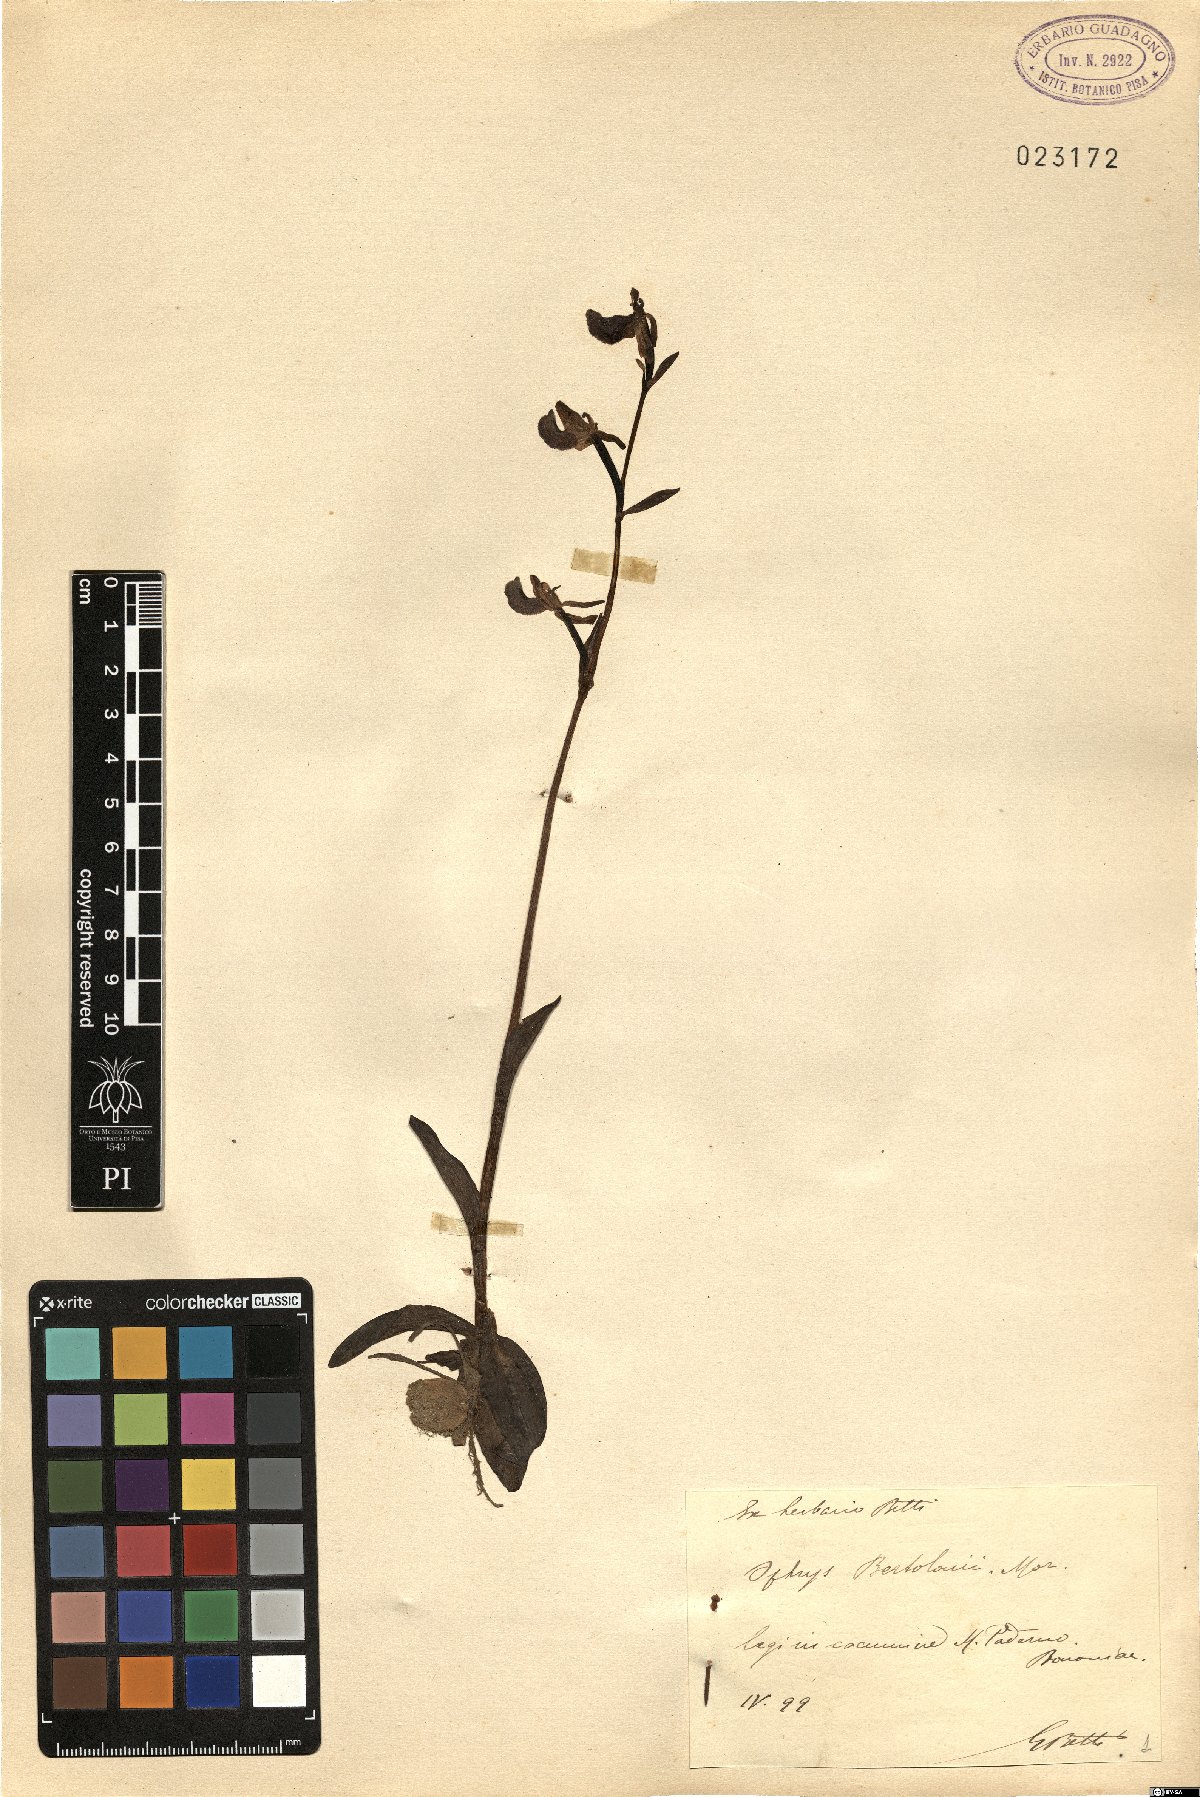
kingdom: Plantae
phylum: Tracheophyta
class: Liliopsida
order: Asparagales
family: Orchidaceae
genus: Ophrys
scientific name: Ophrys bertolonii
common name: Bertoloni's bee orchid
